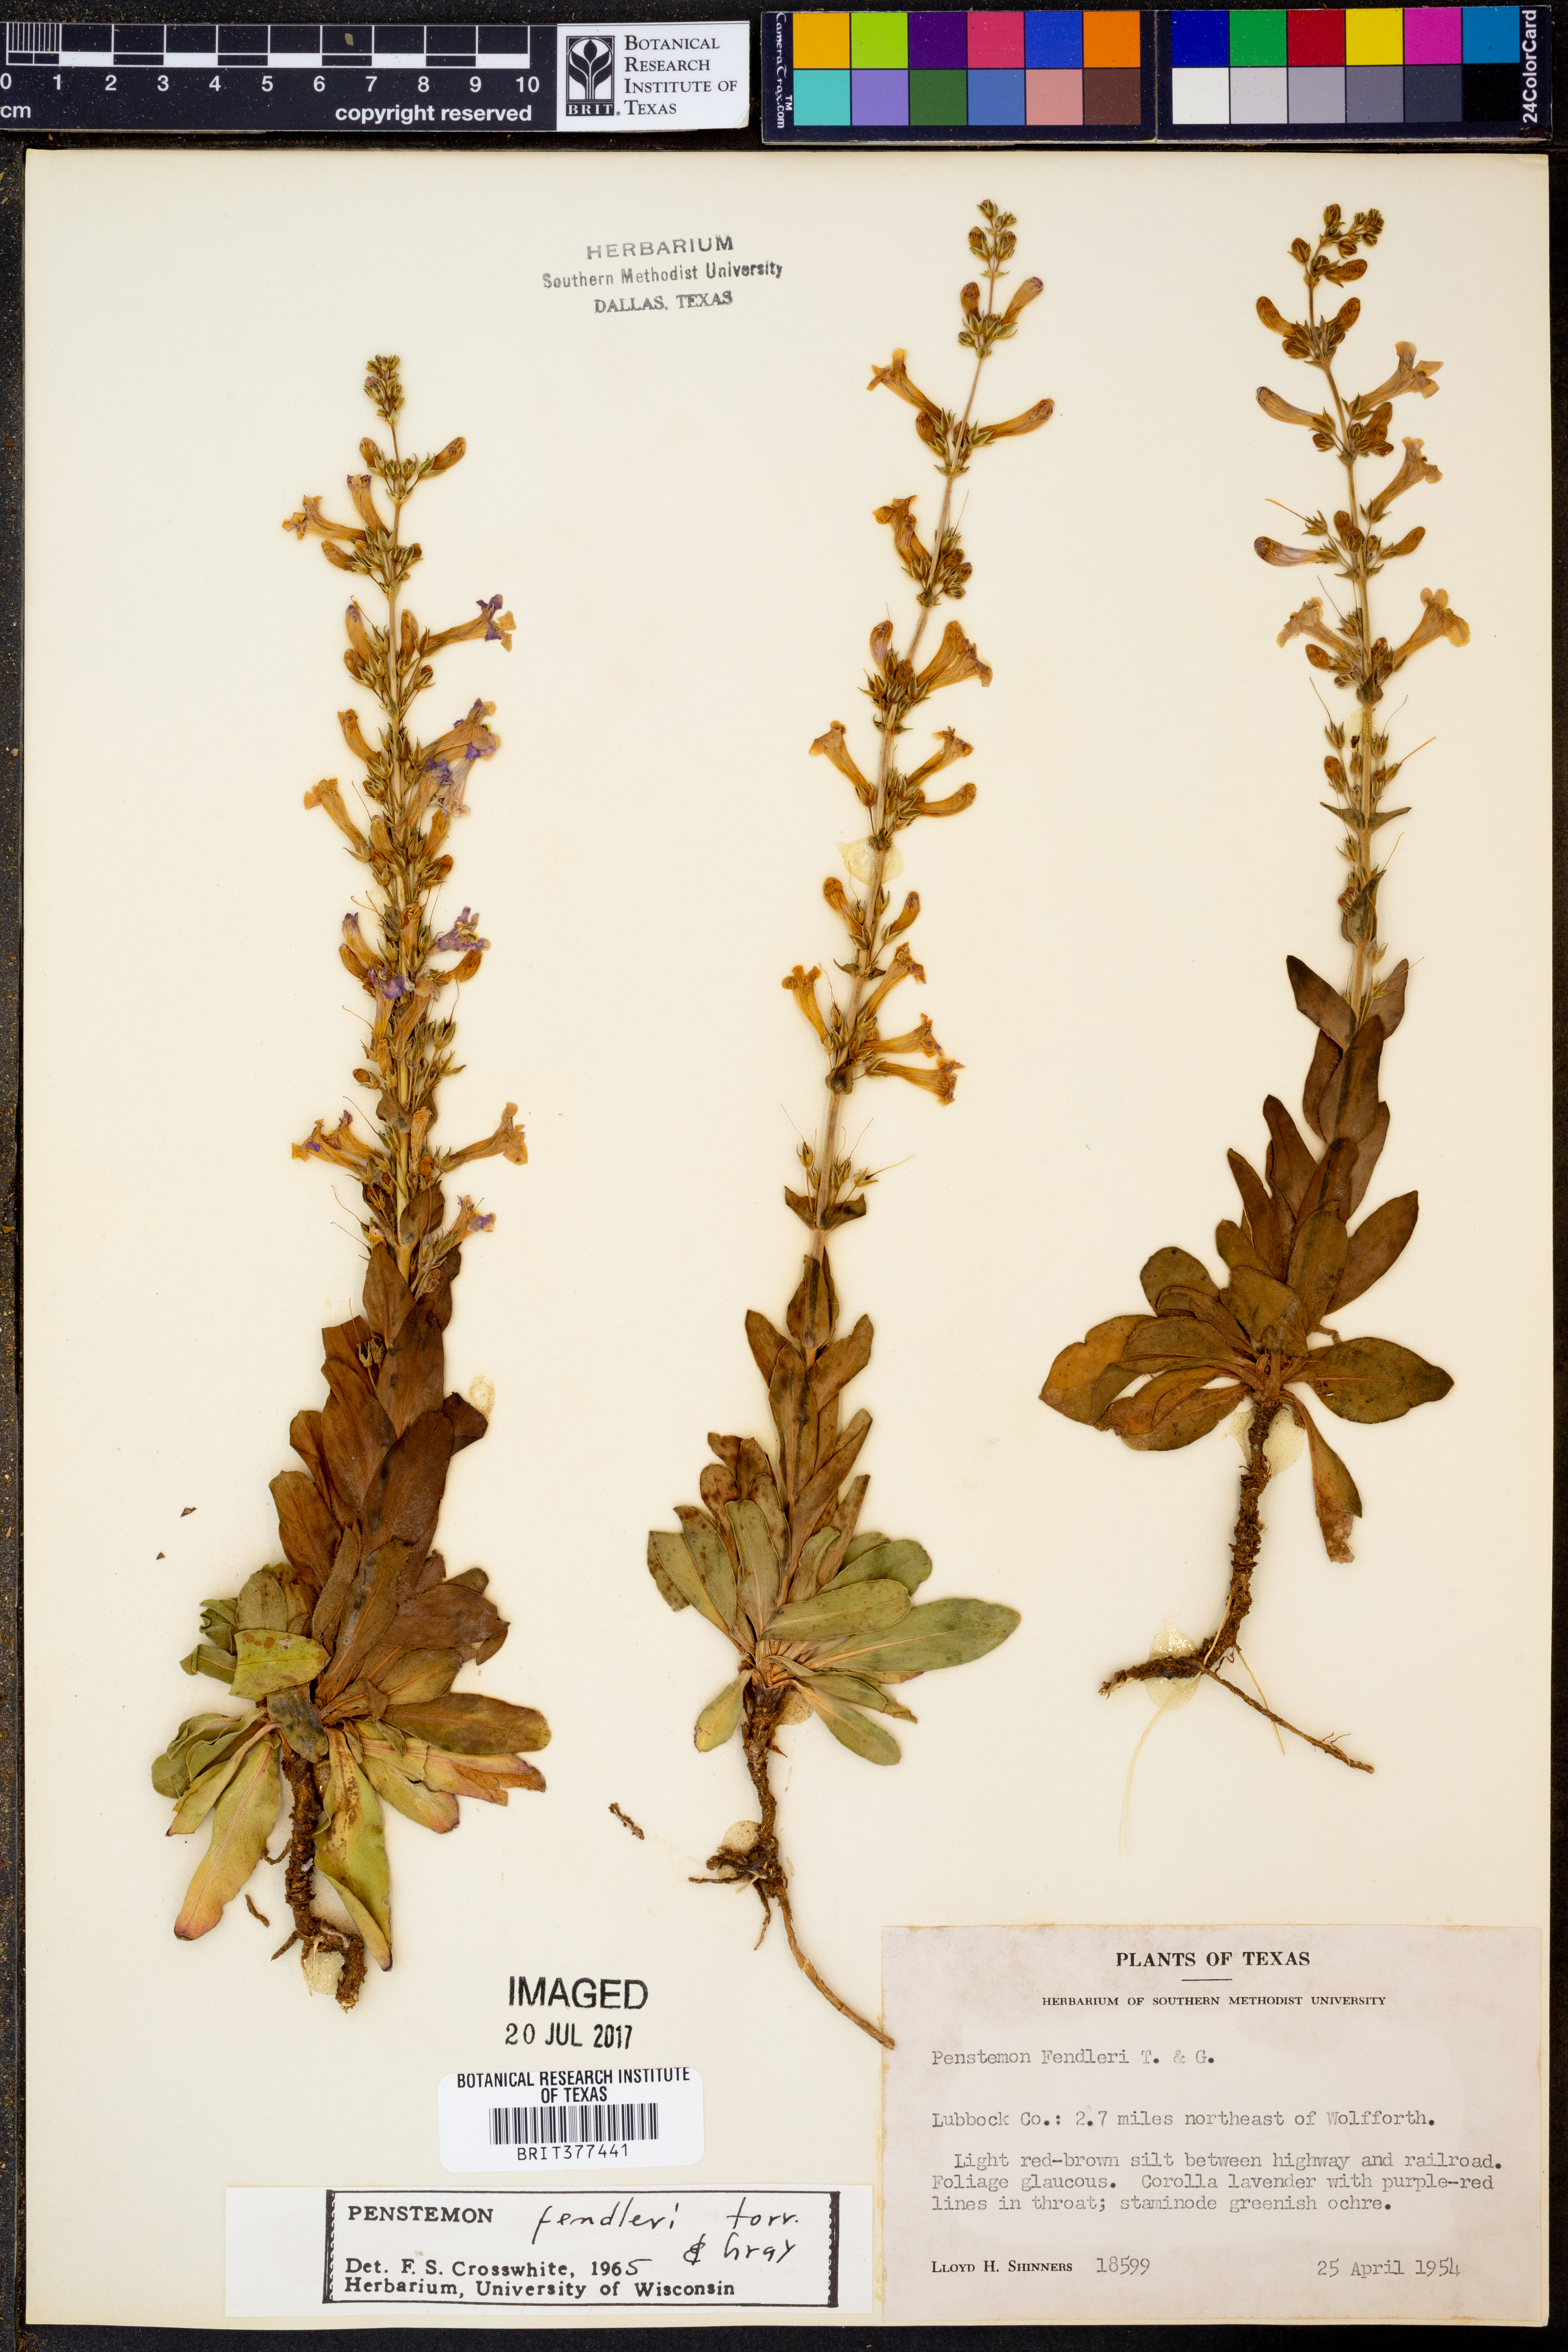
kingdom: Plantae
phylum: Tracheophyta
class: Magnoliopsida
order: Lamiales
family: Plantaginaceae
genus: Penstemon
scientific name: Penstemon fendleri
